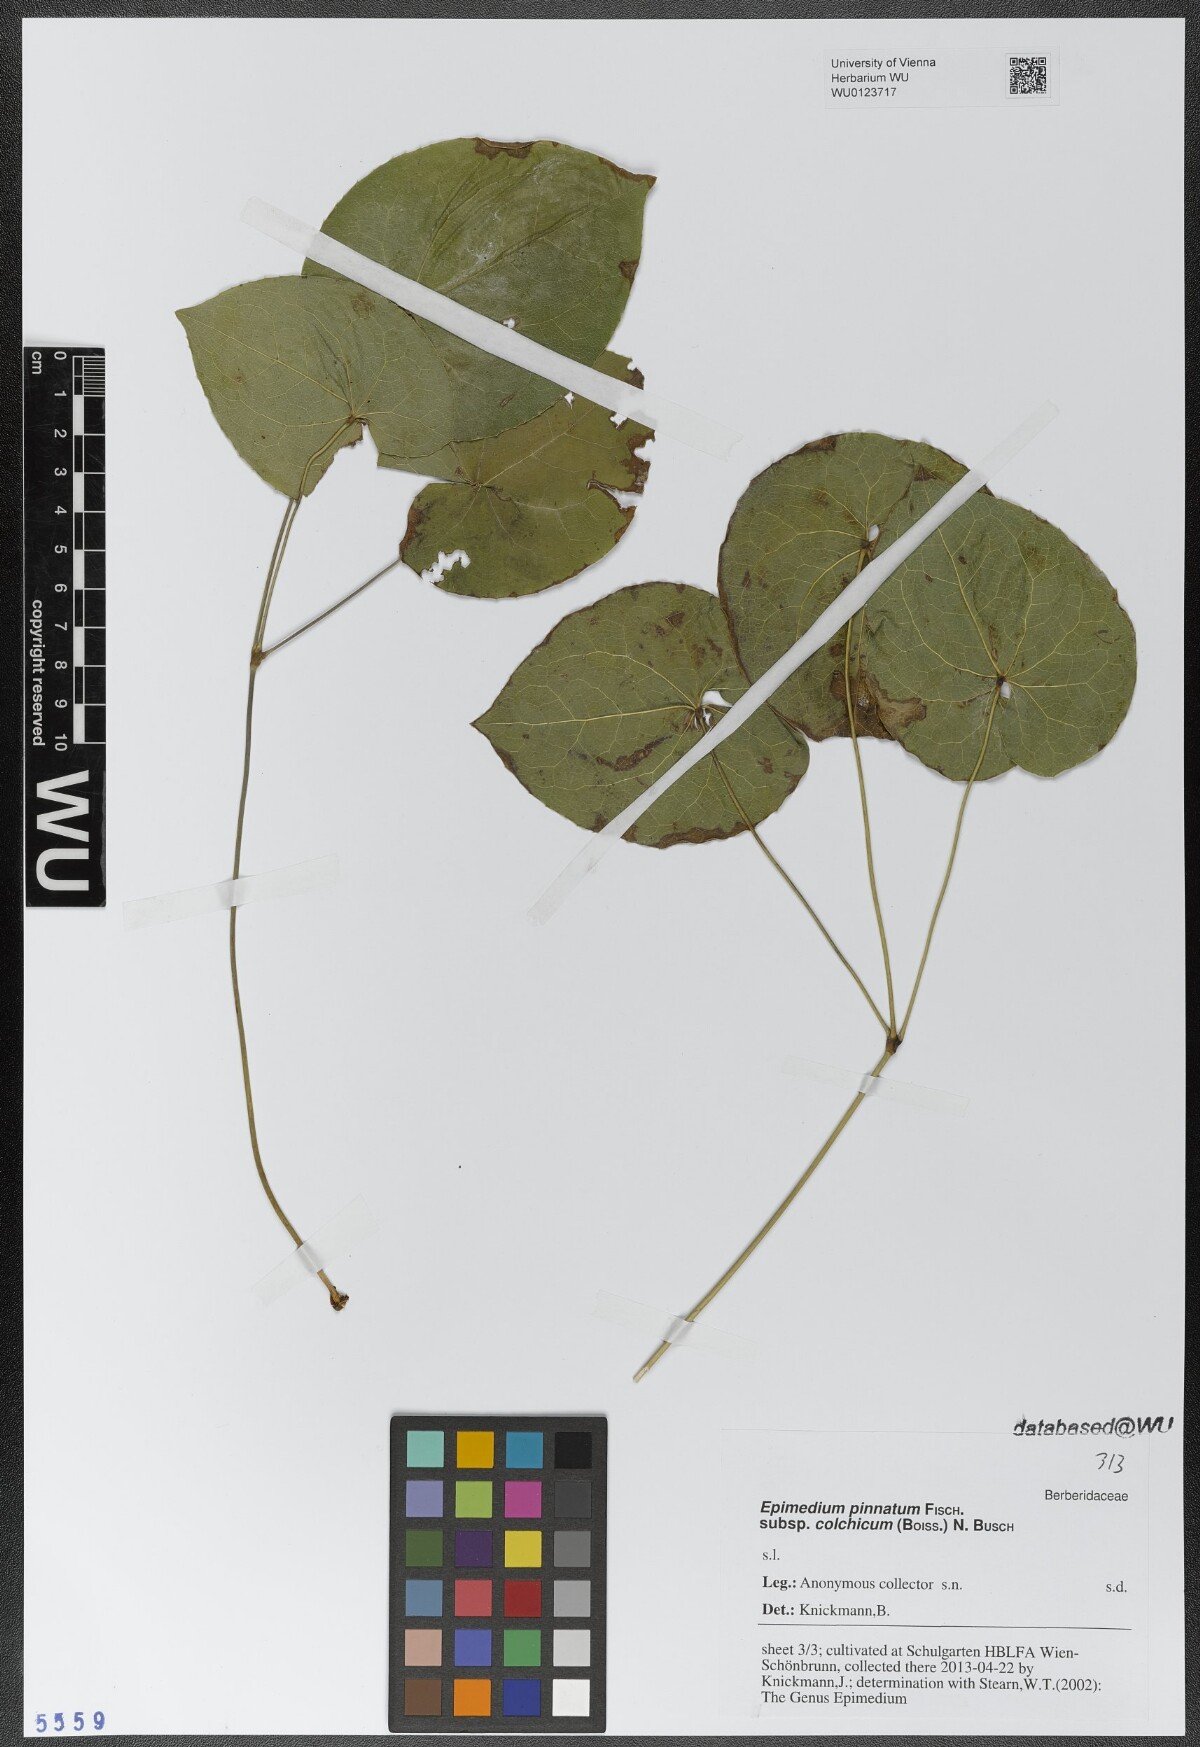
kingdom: Plantae
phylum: Tracheophyta
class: Magnoliopsida
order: Ranunculales
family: Berberidaceae
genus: Epimedium
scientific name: Epimedium pinnatum
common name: Caucasian barrenwort
